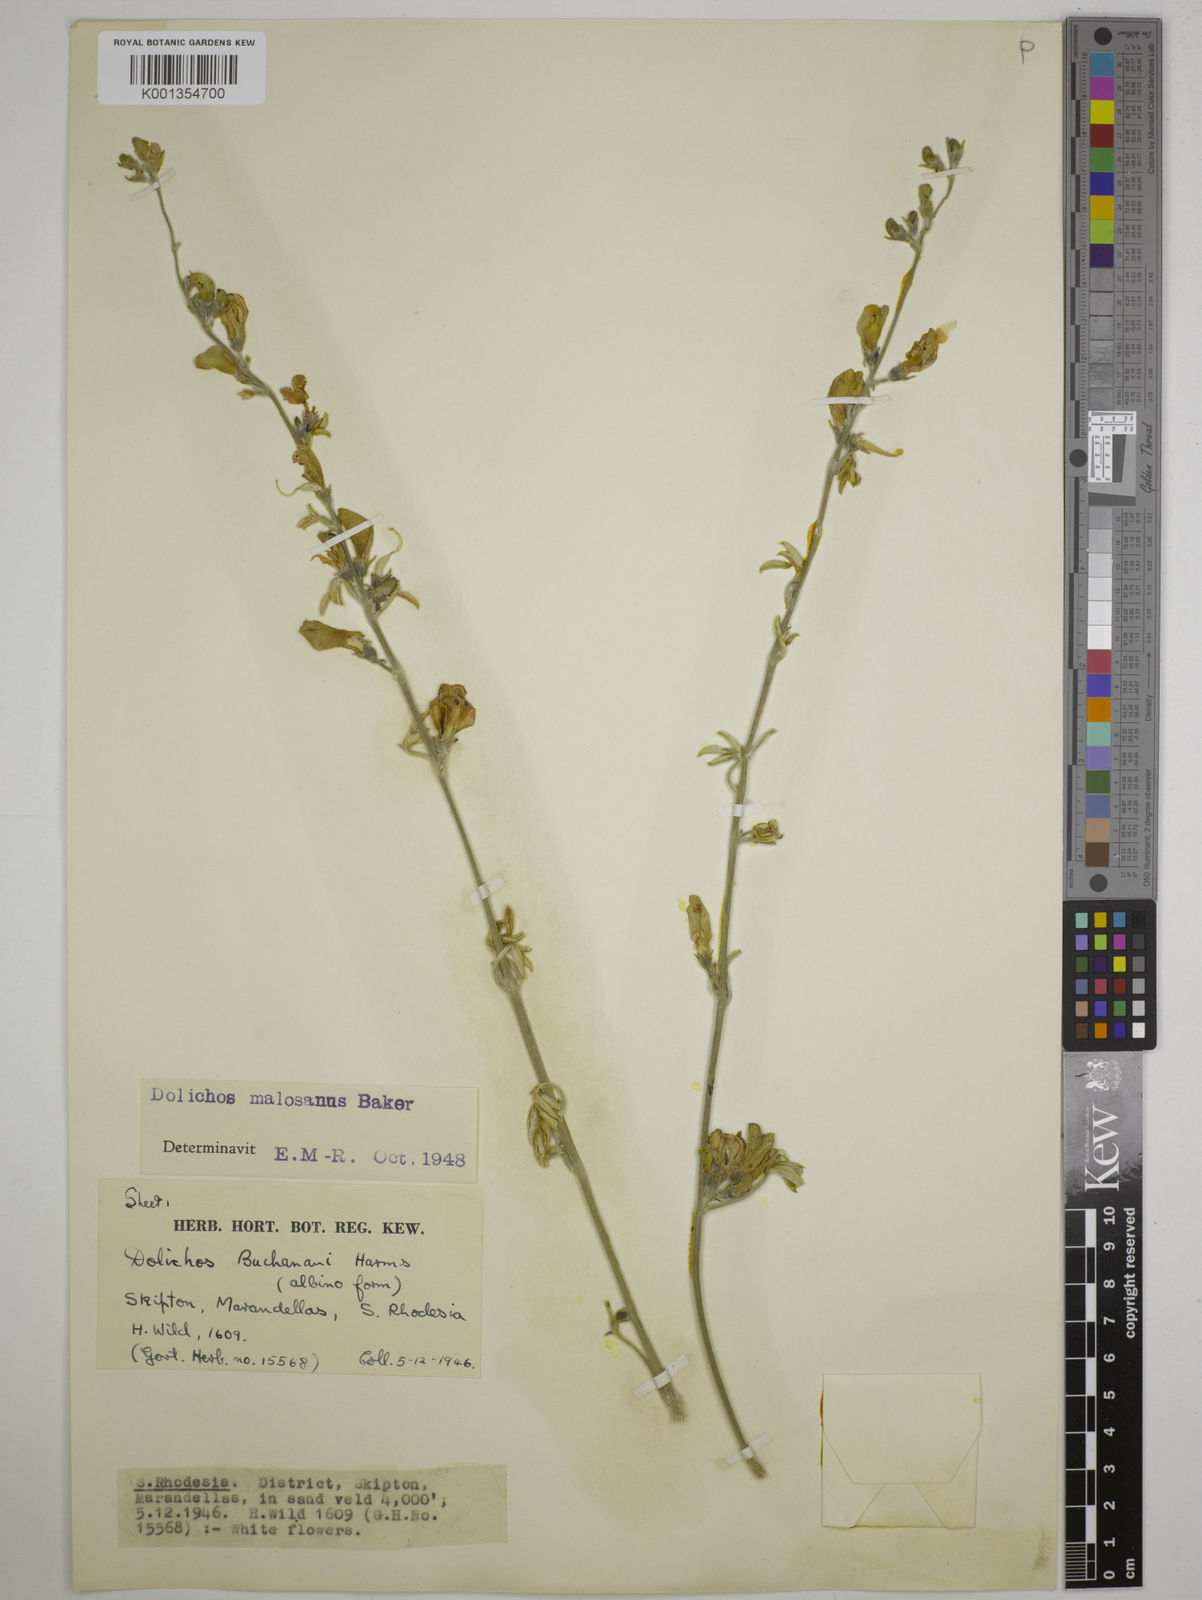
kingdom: Plantae
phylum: Tracheophyta
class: Magnoliopsida
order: Fabales
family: Fabaceae
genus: Dolichos
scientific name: Dolichos kilimandscharicus
